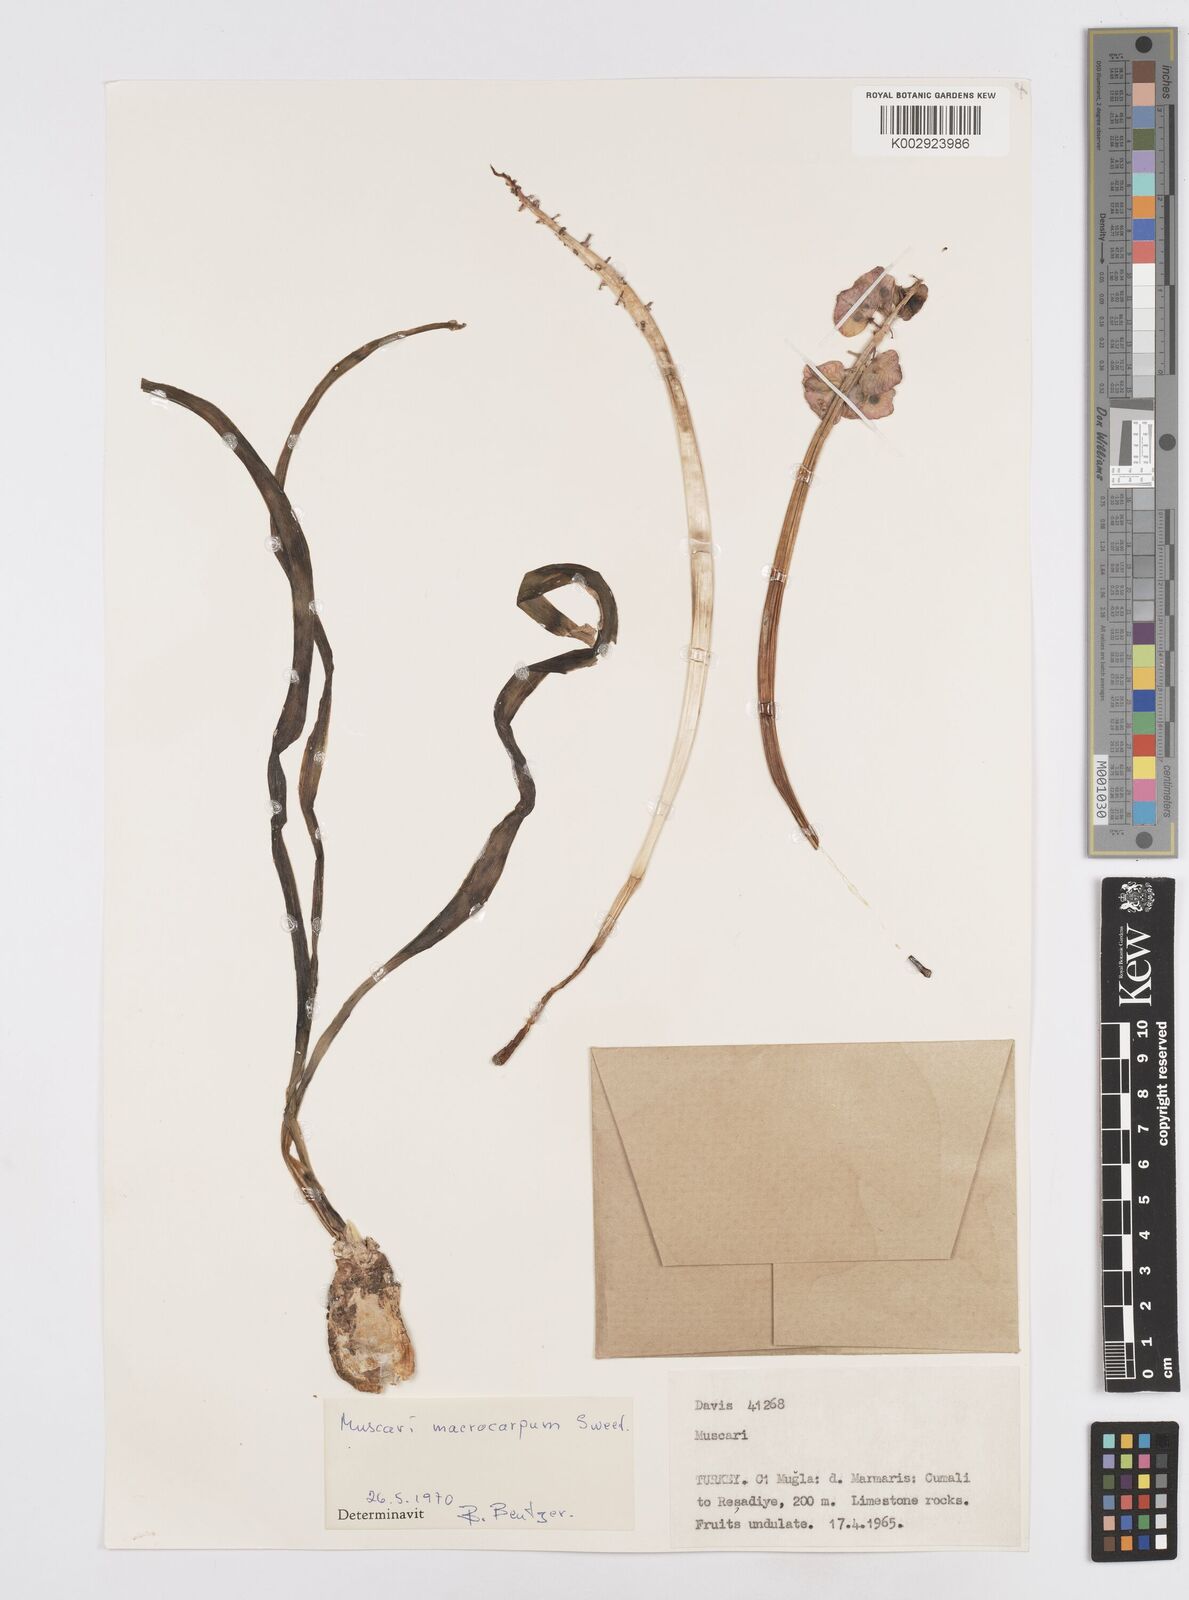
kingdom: Plantae
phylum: Tracheophyta
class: Liliopsida
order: Asparagales
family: Asparagaceae
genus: Muscarimia
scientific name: Muscarimia macrocarpa
